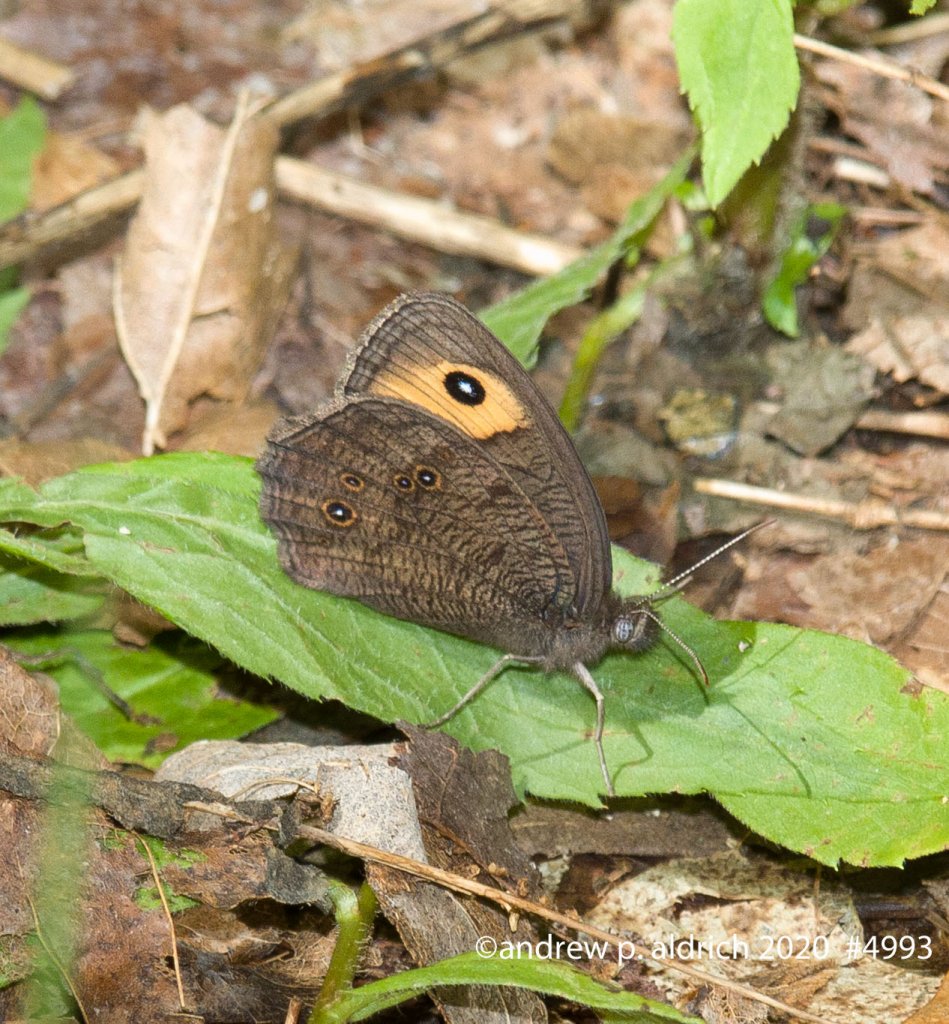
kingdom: Animalia
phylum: Arthropoda
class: Insecta
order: Lepidoptera
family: Nymphalidae
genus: Cercyonis
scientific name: Cercyonis pegala
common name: Common Wood-Nymph
